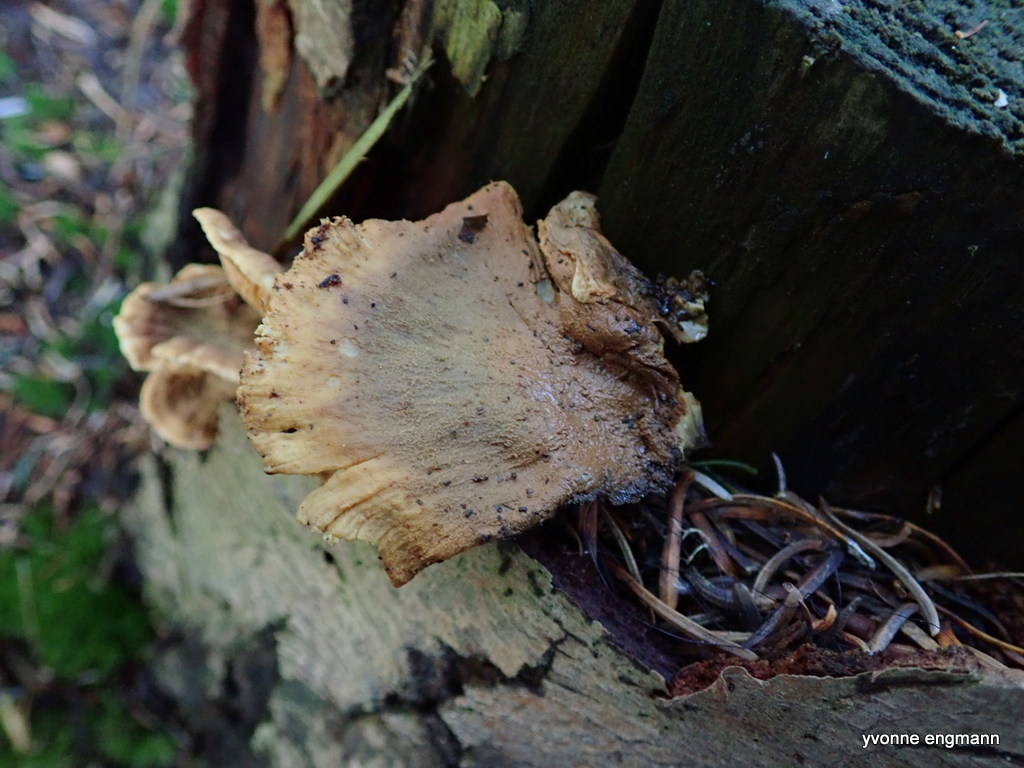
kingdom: Fungi
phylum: Basidiomycota
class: Agaricomycetes
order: Boletales
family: Tapinellaceae
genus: Tapinella
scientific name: Tapinella panuoides
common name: tømmer-viftesvamp
